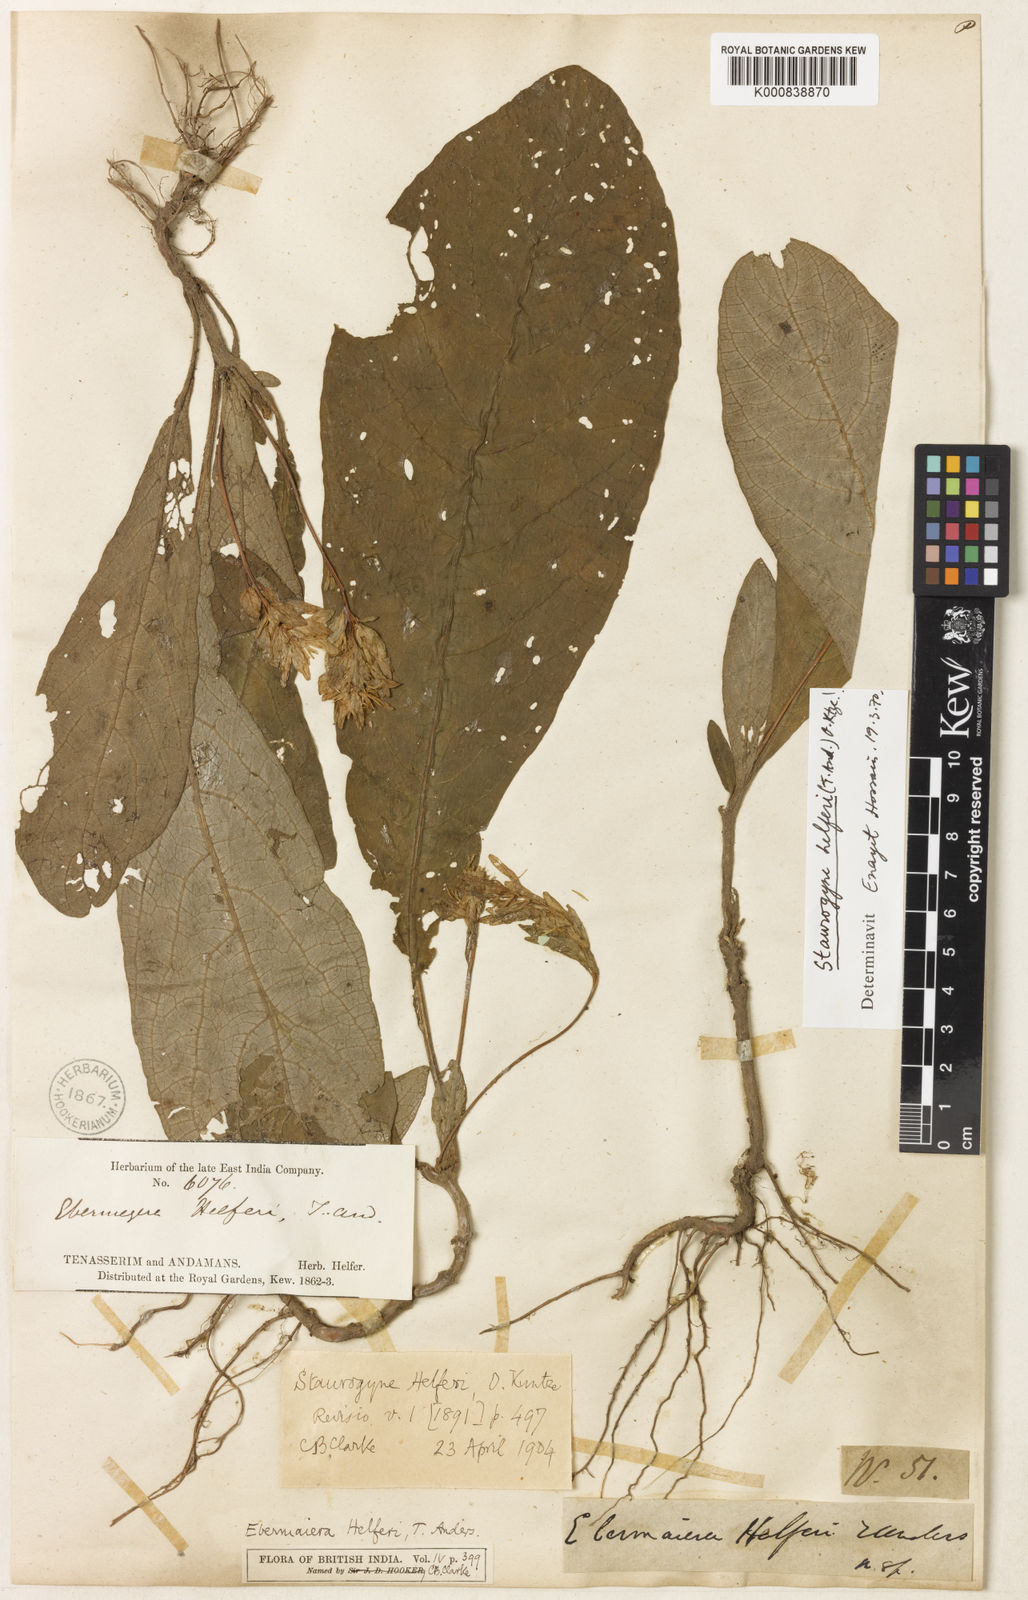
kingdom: Plantae
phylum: Tracheophyta
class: Magnoliopsida
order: Lamiales
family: Acanthaceae
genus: Staurogyne
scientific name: Staurogyne helferi
